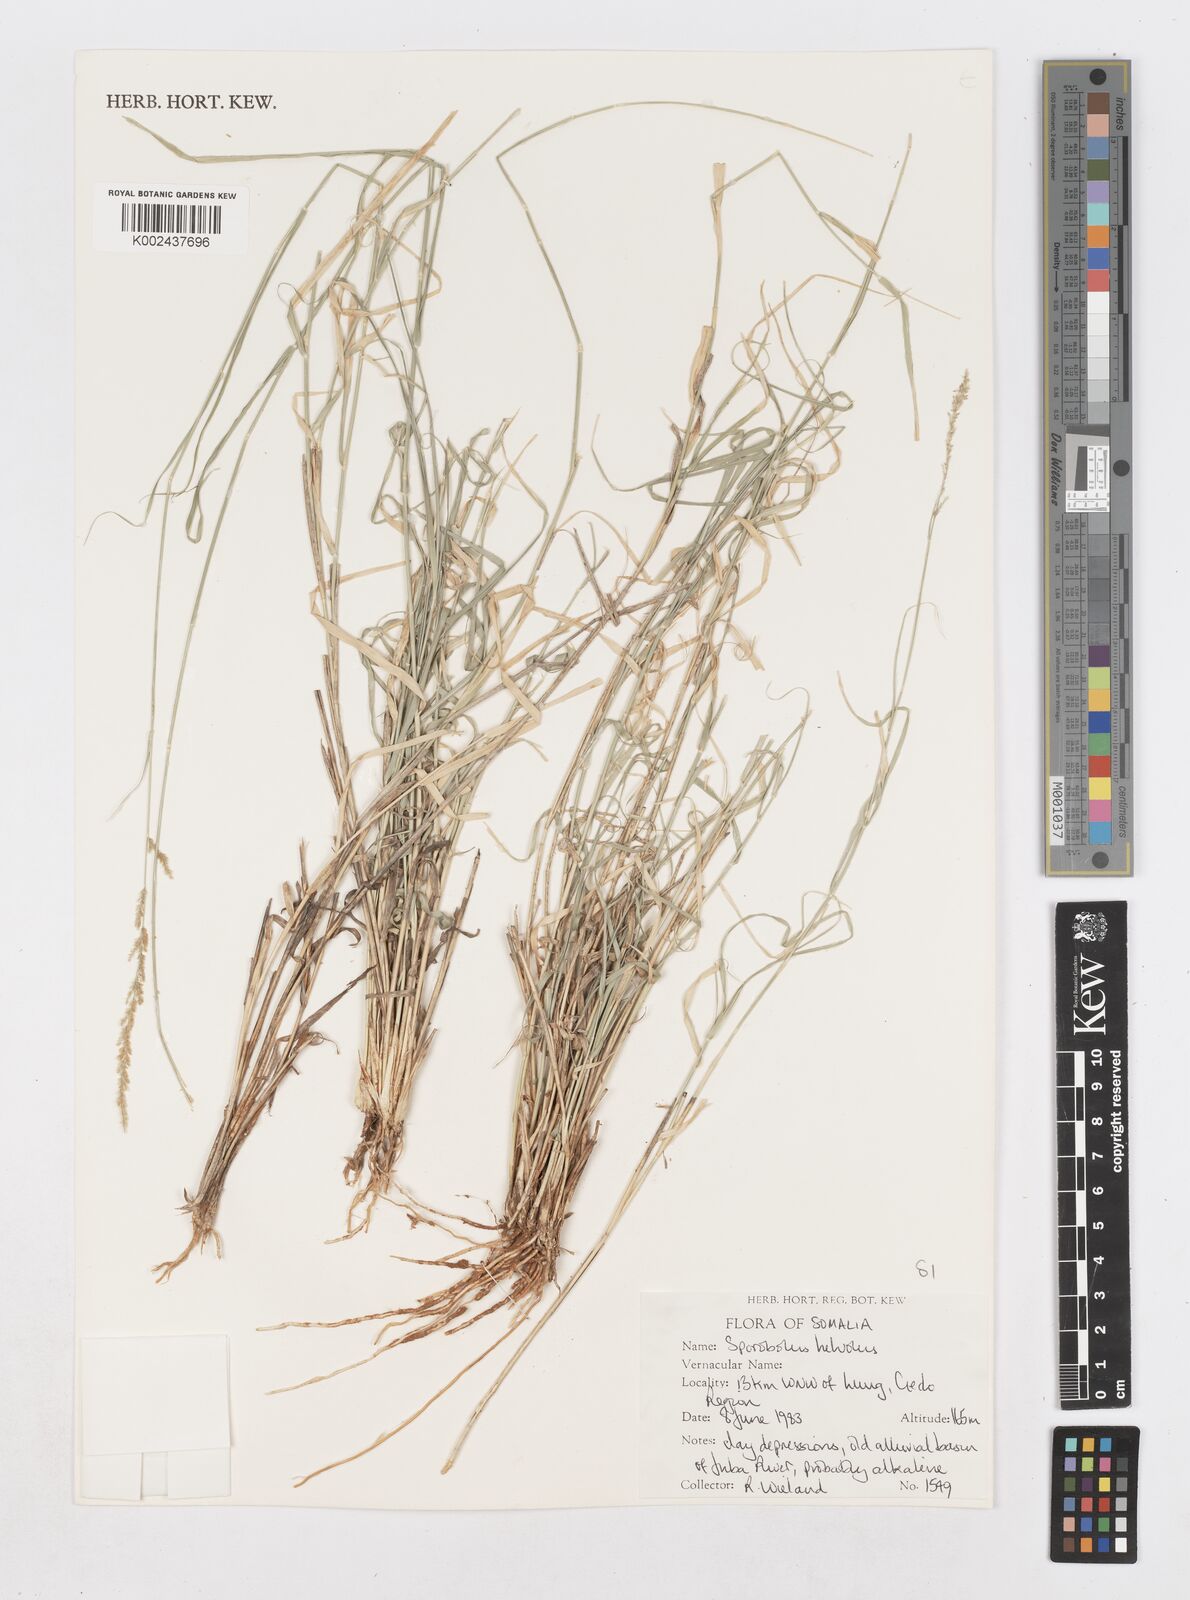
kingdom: Plantae
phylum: Tracheophyta
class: Liliopsida
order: Poales
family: Poaceae
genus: Sporobolus
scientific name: Sporobolus helvolus
